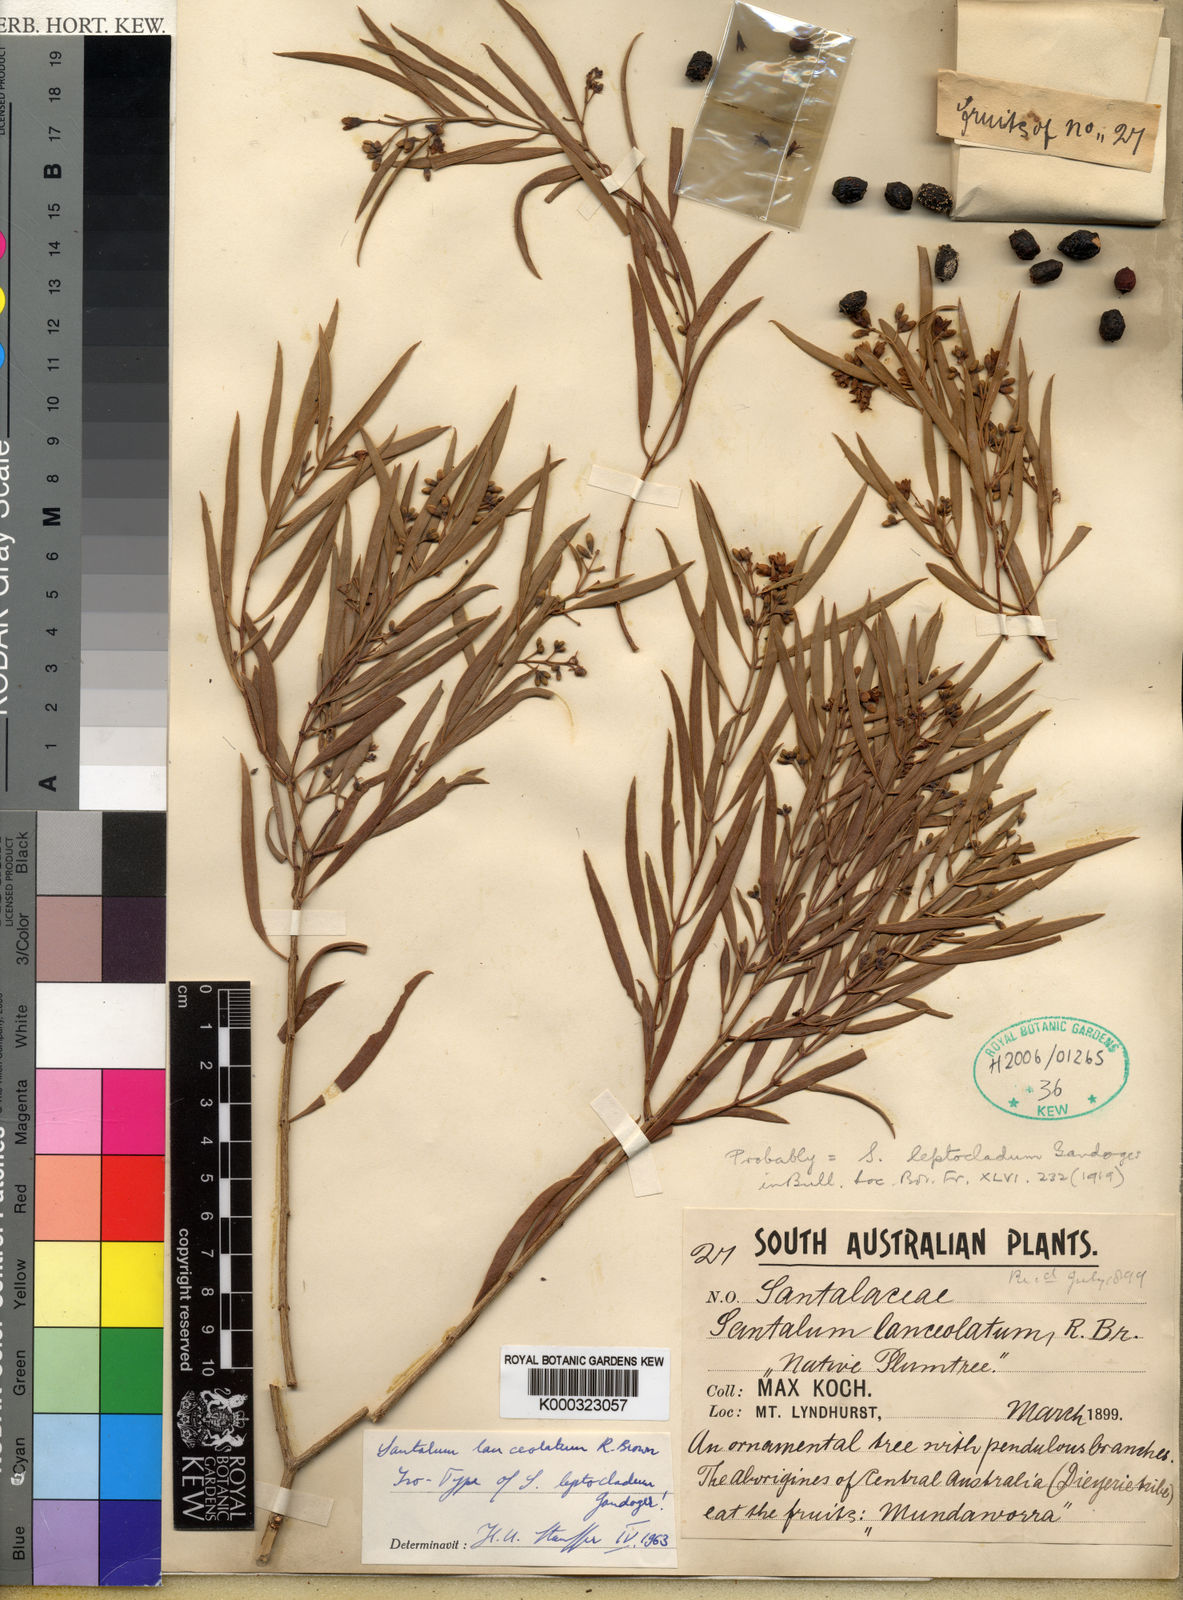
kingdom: Plantae
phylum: Tracheophyta
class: Magnoliopsida
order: Santalales
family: Santalaceae
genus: Santalum
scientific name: Santalum lanceolatum
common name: Ankwerley
